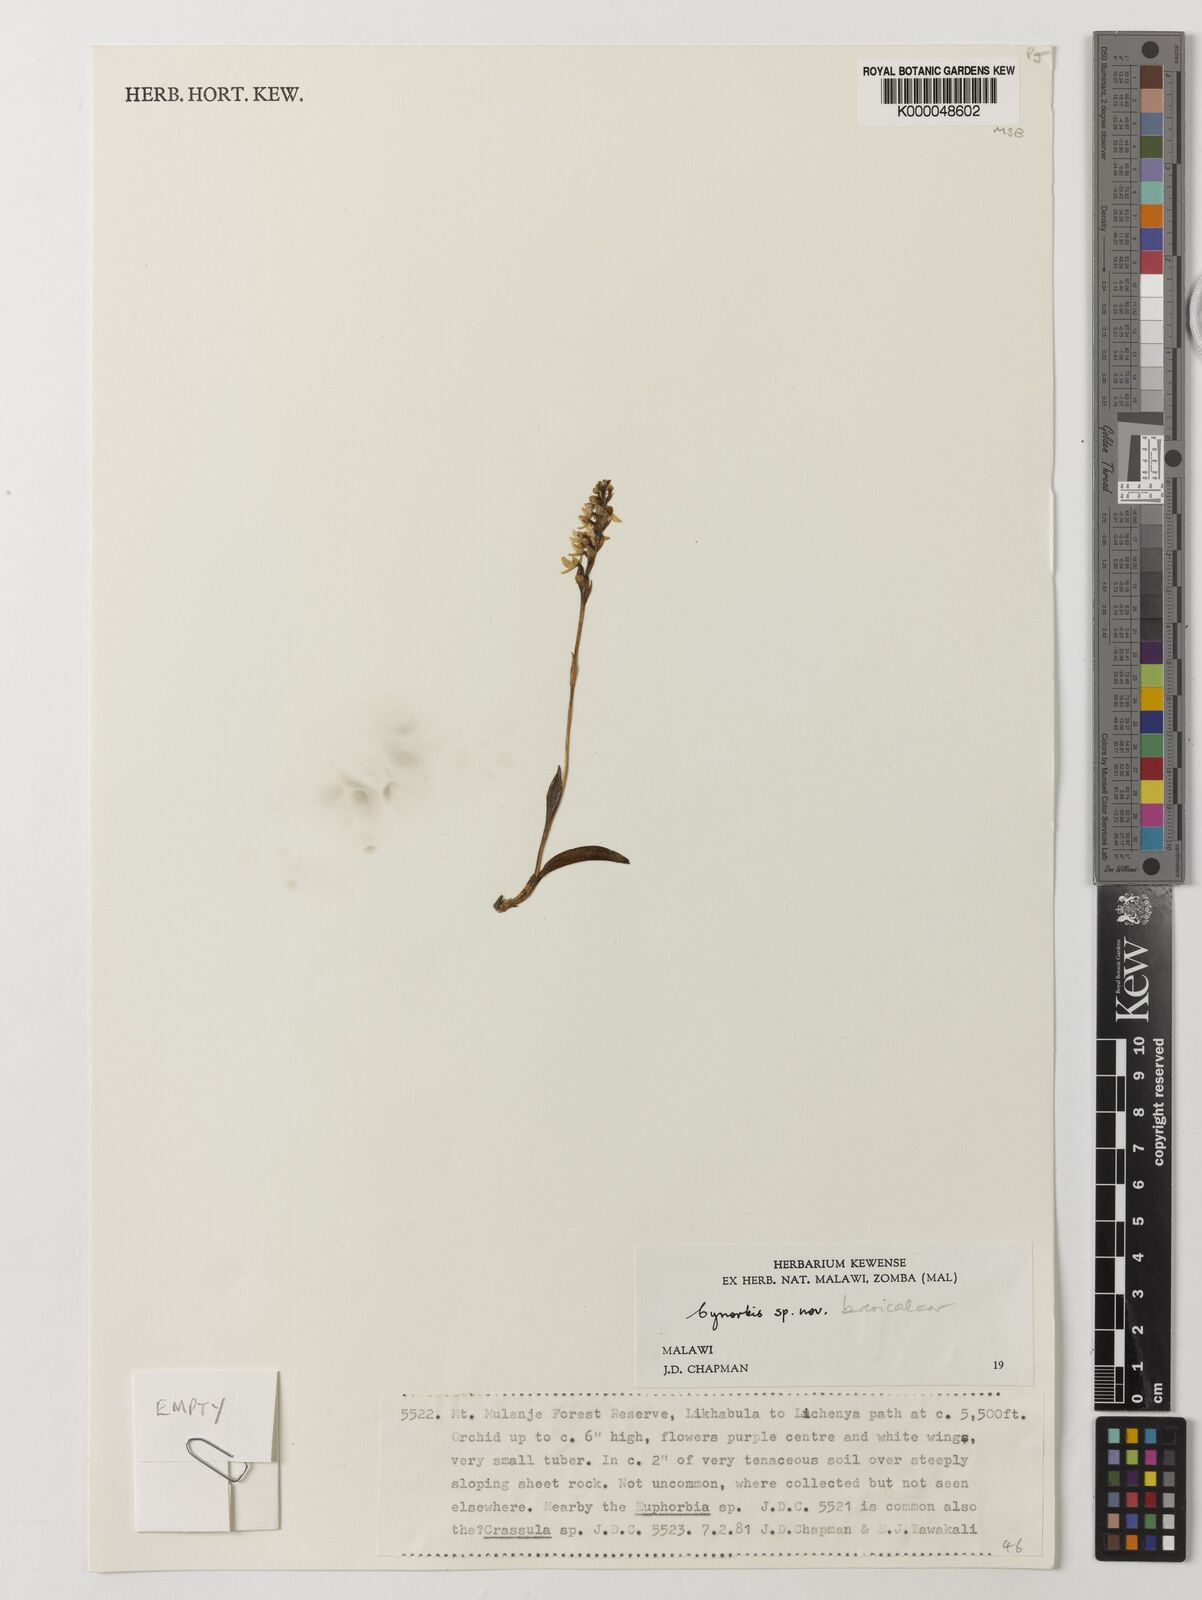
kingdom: Plantae
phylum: Tracheophyta
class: Liliopsida
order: Asparagales
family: Orchidaceae
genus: Cynorkis
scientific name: Cynorkis brevicalcar
